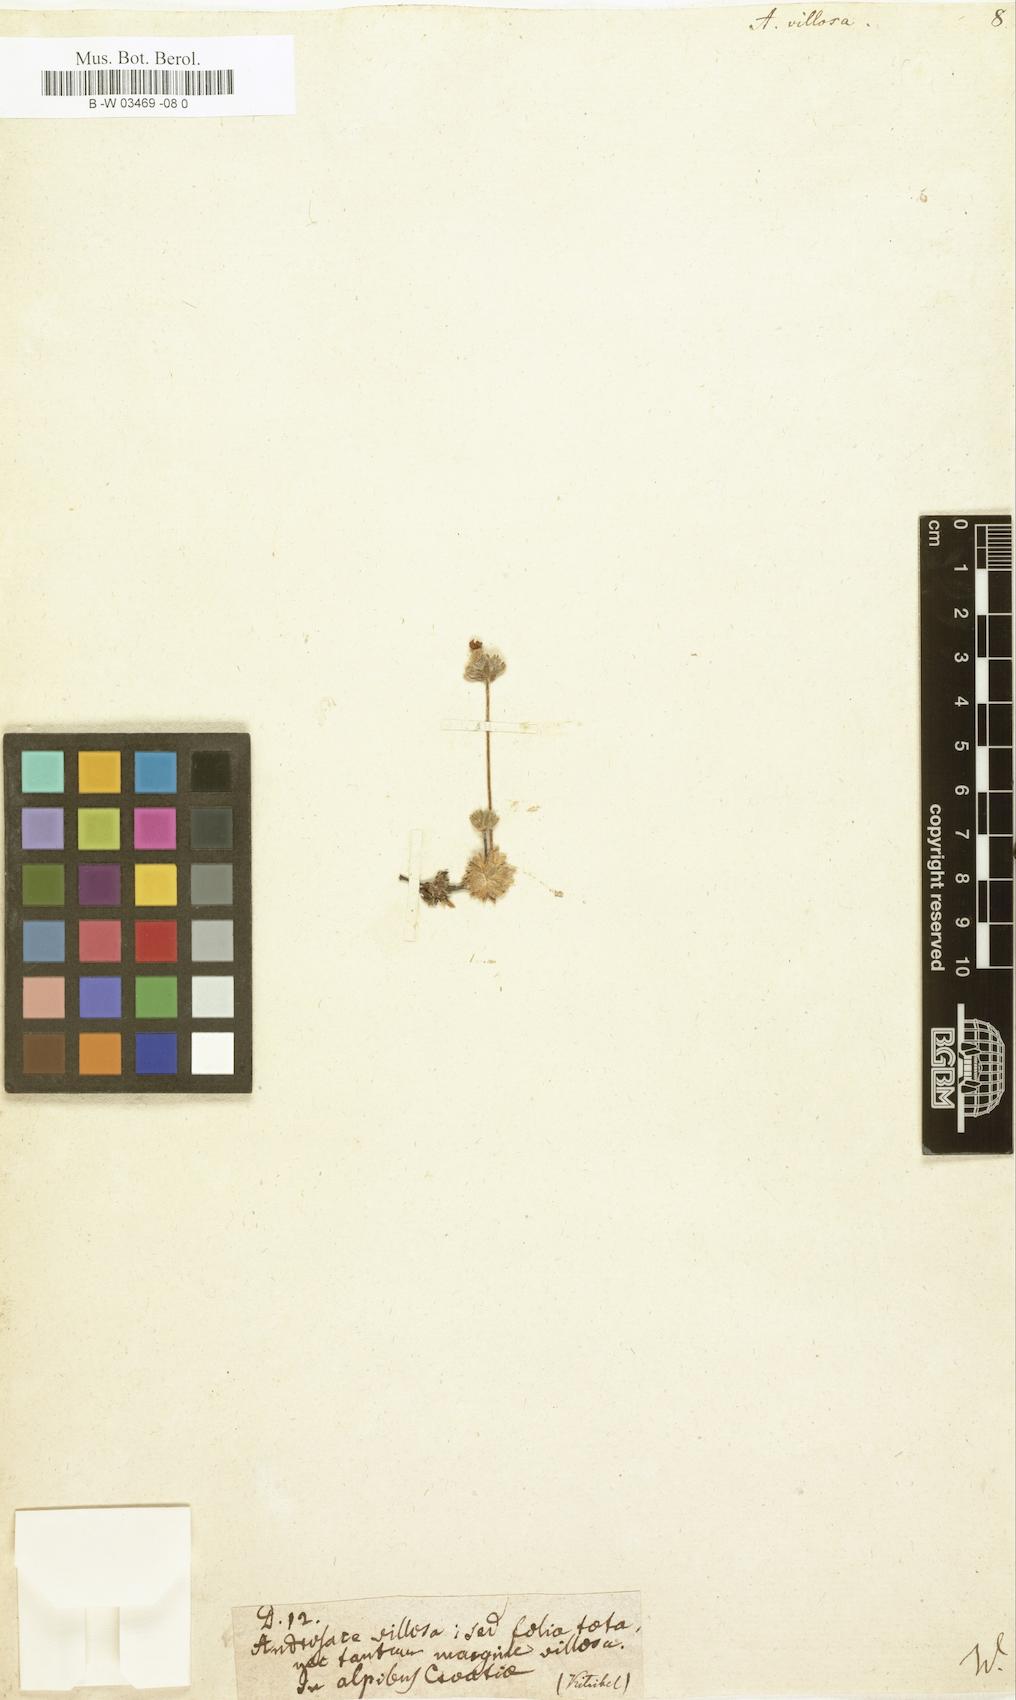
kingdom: Plantae
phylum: Tracheophyta
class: Magnoliopsida
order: Ericales
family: Primulaceae
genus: Androsace
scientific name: Androsace villosa
